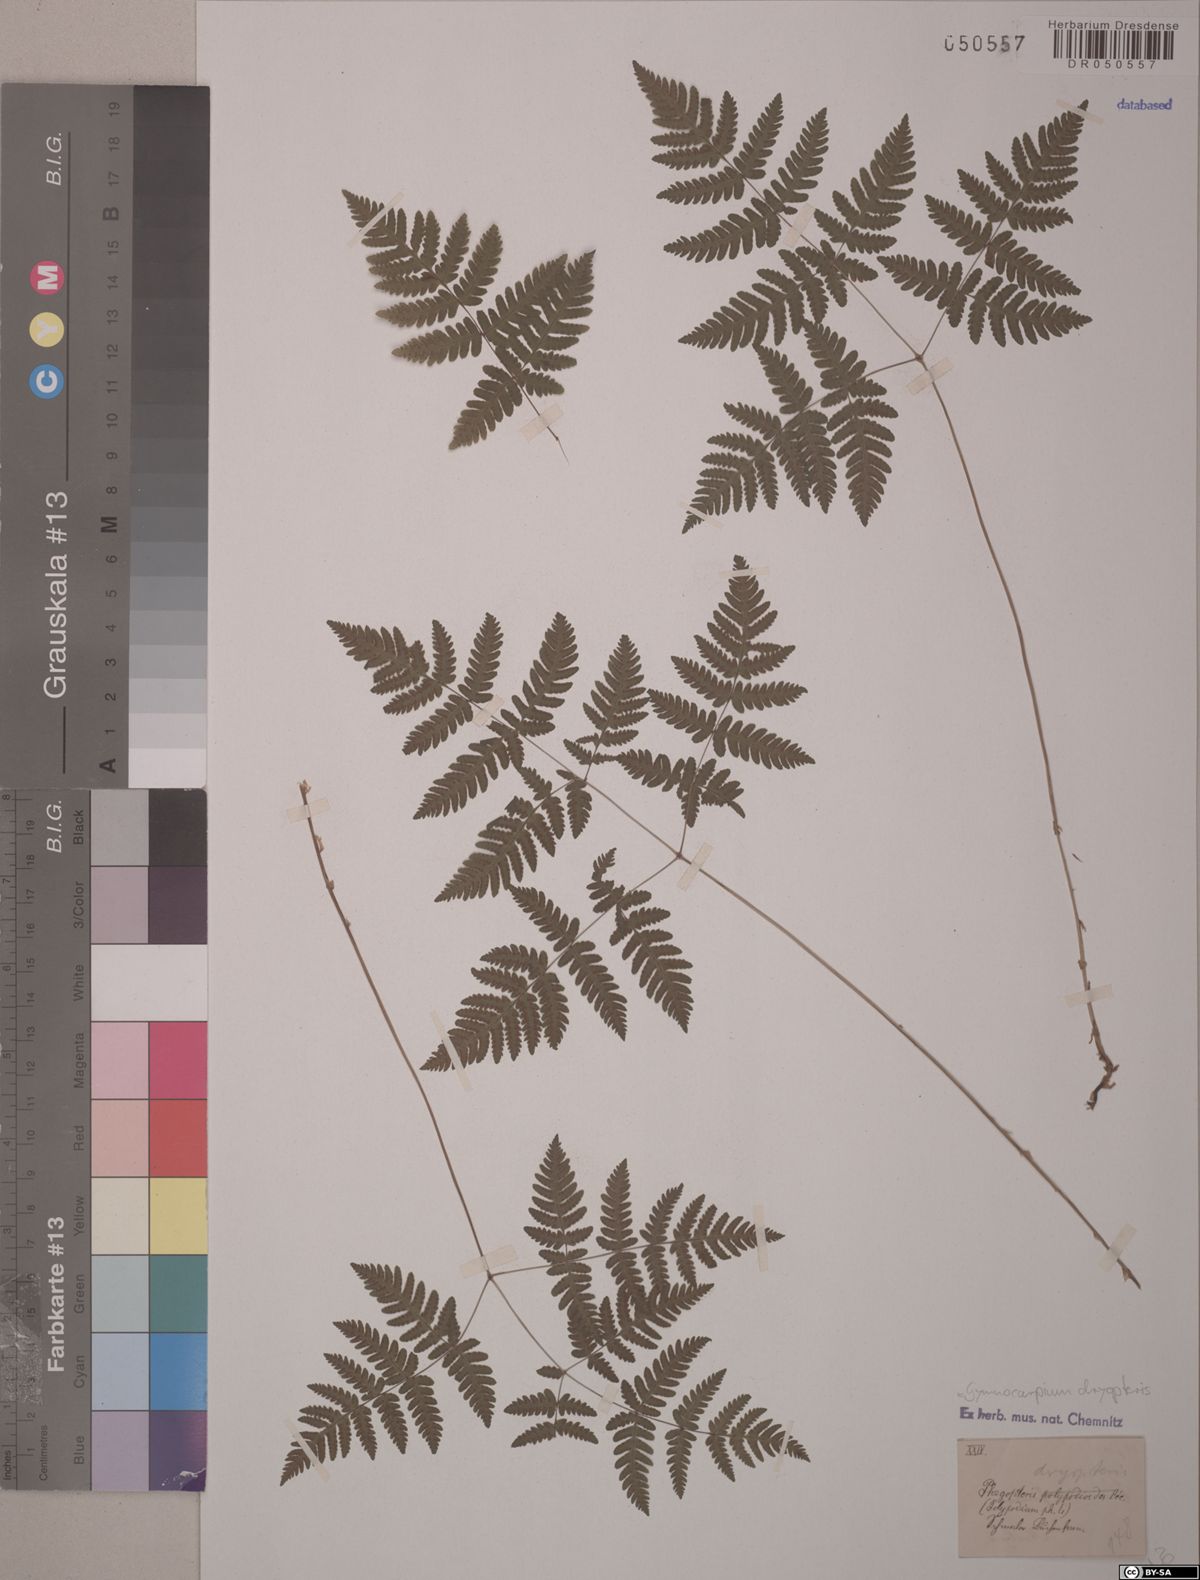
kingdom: Plantae
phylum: Tracheophyta
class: Polypodiopsida
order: Polypodiales
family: Cystopteridaceae
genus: Gymnocarpium
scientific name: Gymnocarpium dryopteris
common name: Oak fern
